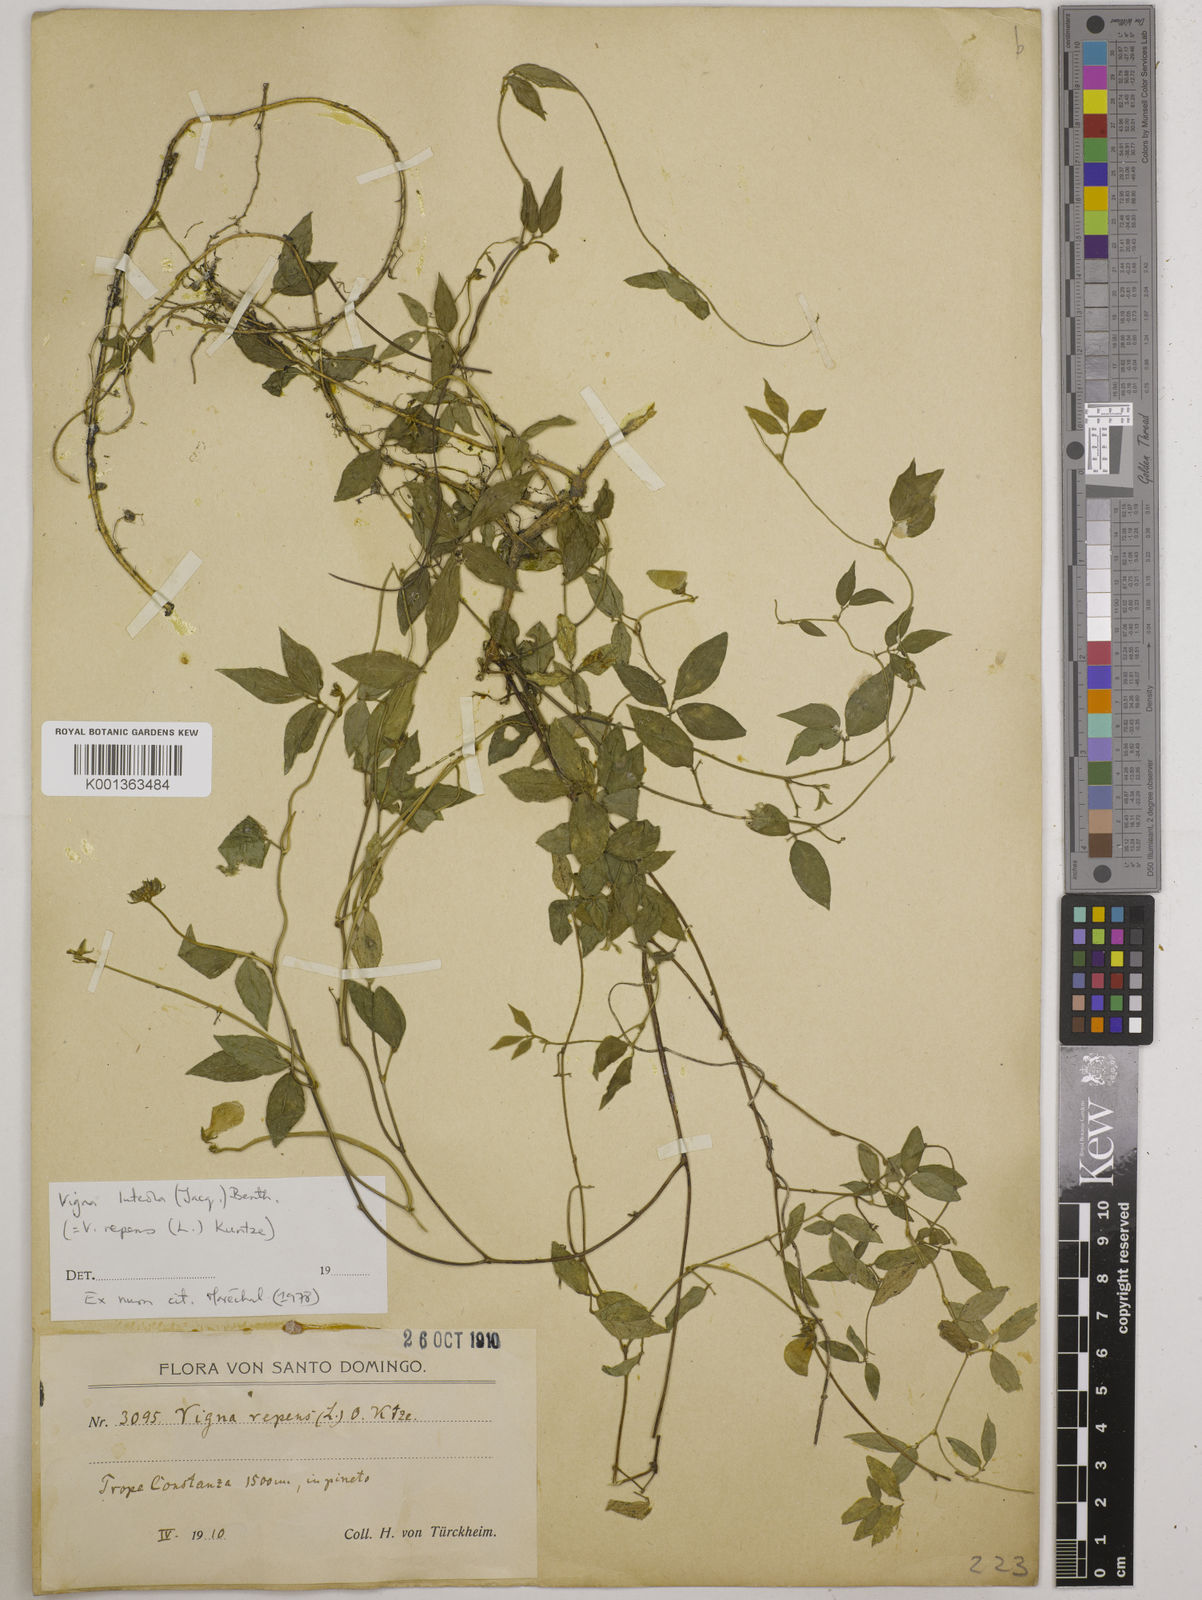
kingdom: Plantae
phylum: Tracheophyta
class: Magnoliopsida
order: Fabales
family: Fabaceae
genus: Vigna
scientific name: Vigna luteola
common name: Hairypod cowpea
